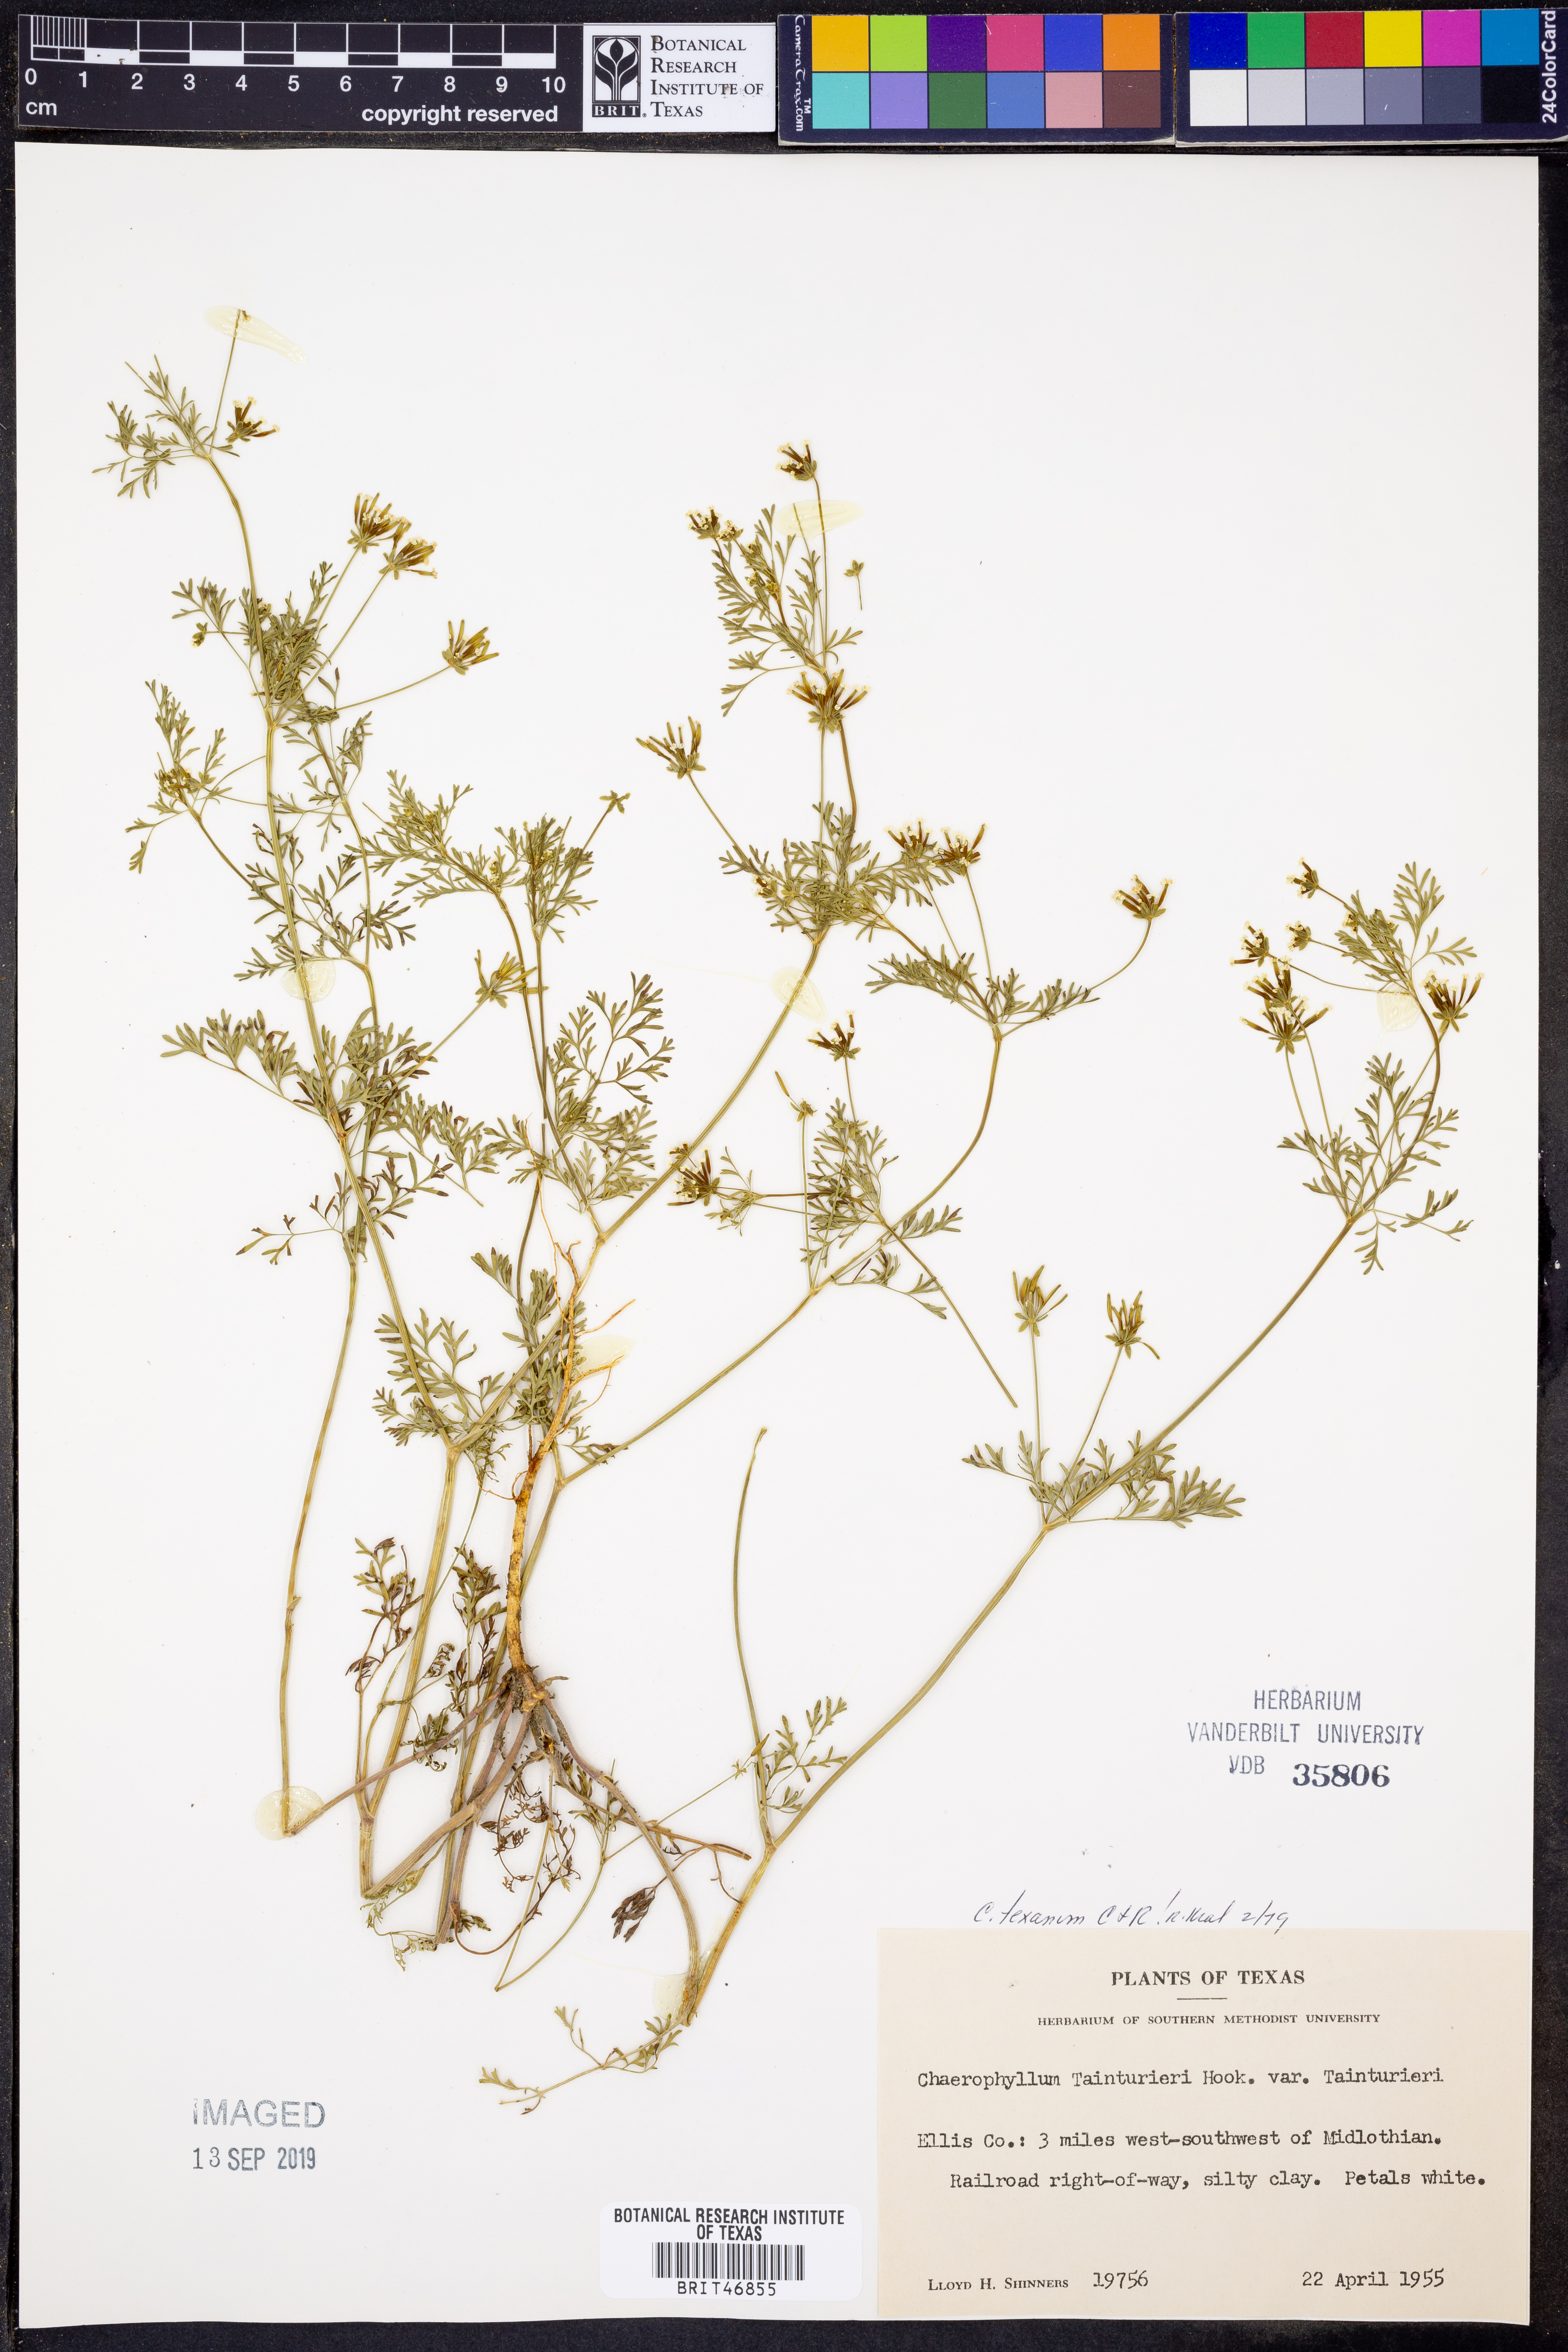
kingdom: Plantae
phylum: Tracheophyta
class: Magnoliopsida
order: Apiales
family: Apiaceae
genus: Chaerophyllum
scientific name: Chaerophyllum tainturieri
